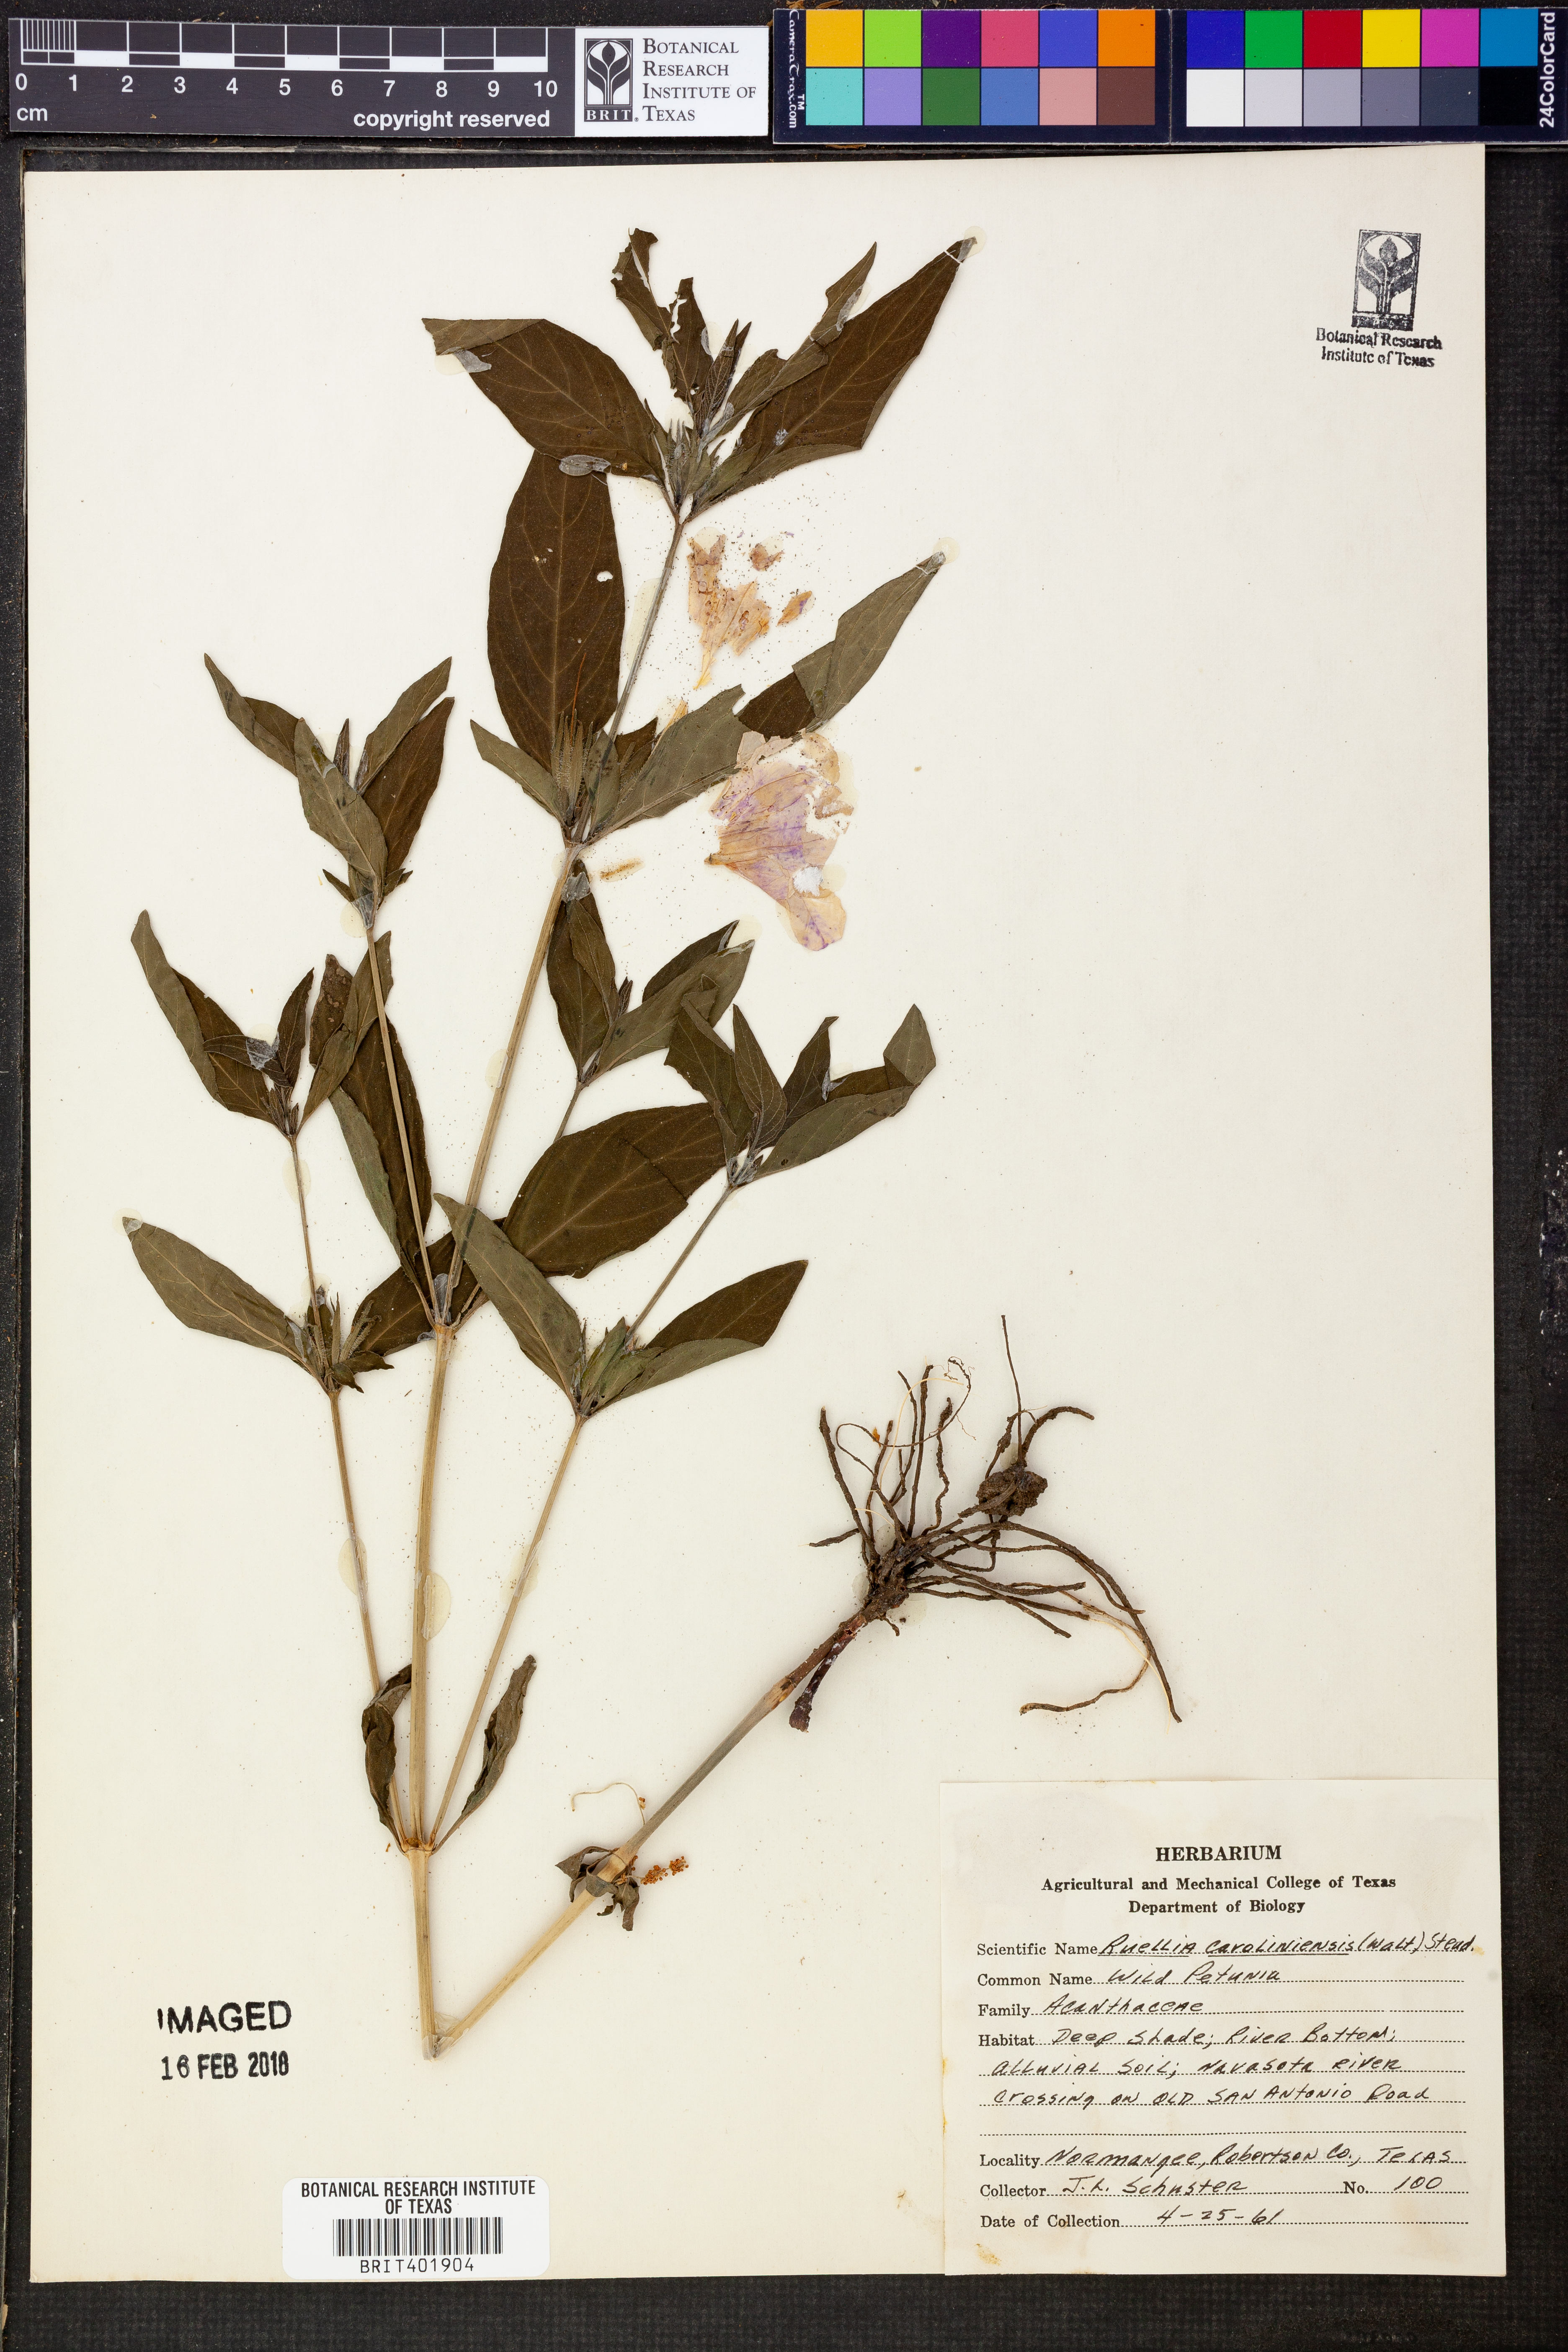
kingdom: Plantae
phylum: Tracheophyta
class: Magnoliopsida
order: Lamiales
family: Acanthaceae
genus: Ruellia
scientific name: Ruellia caroliniensis
